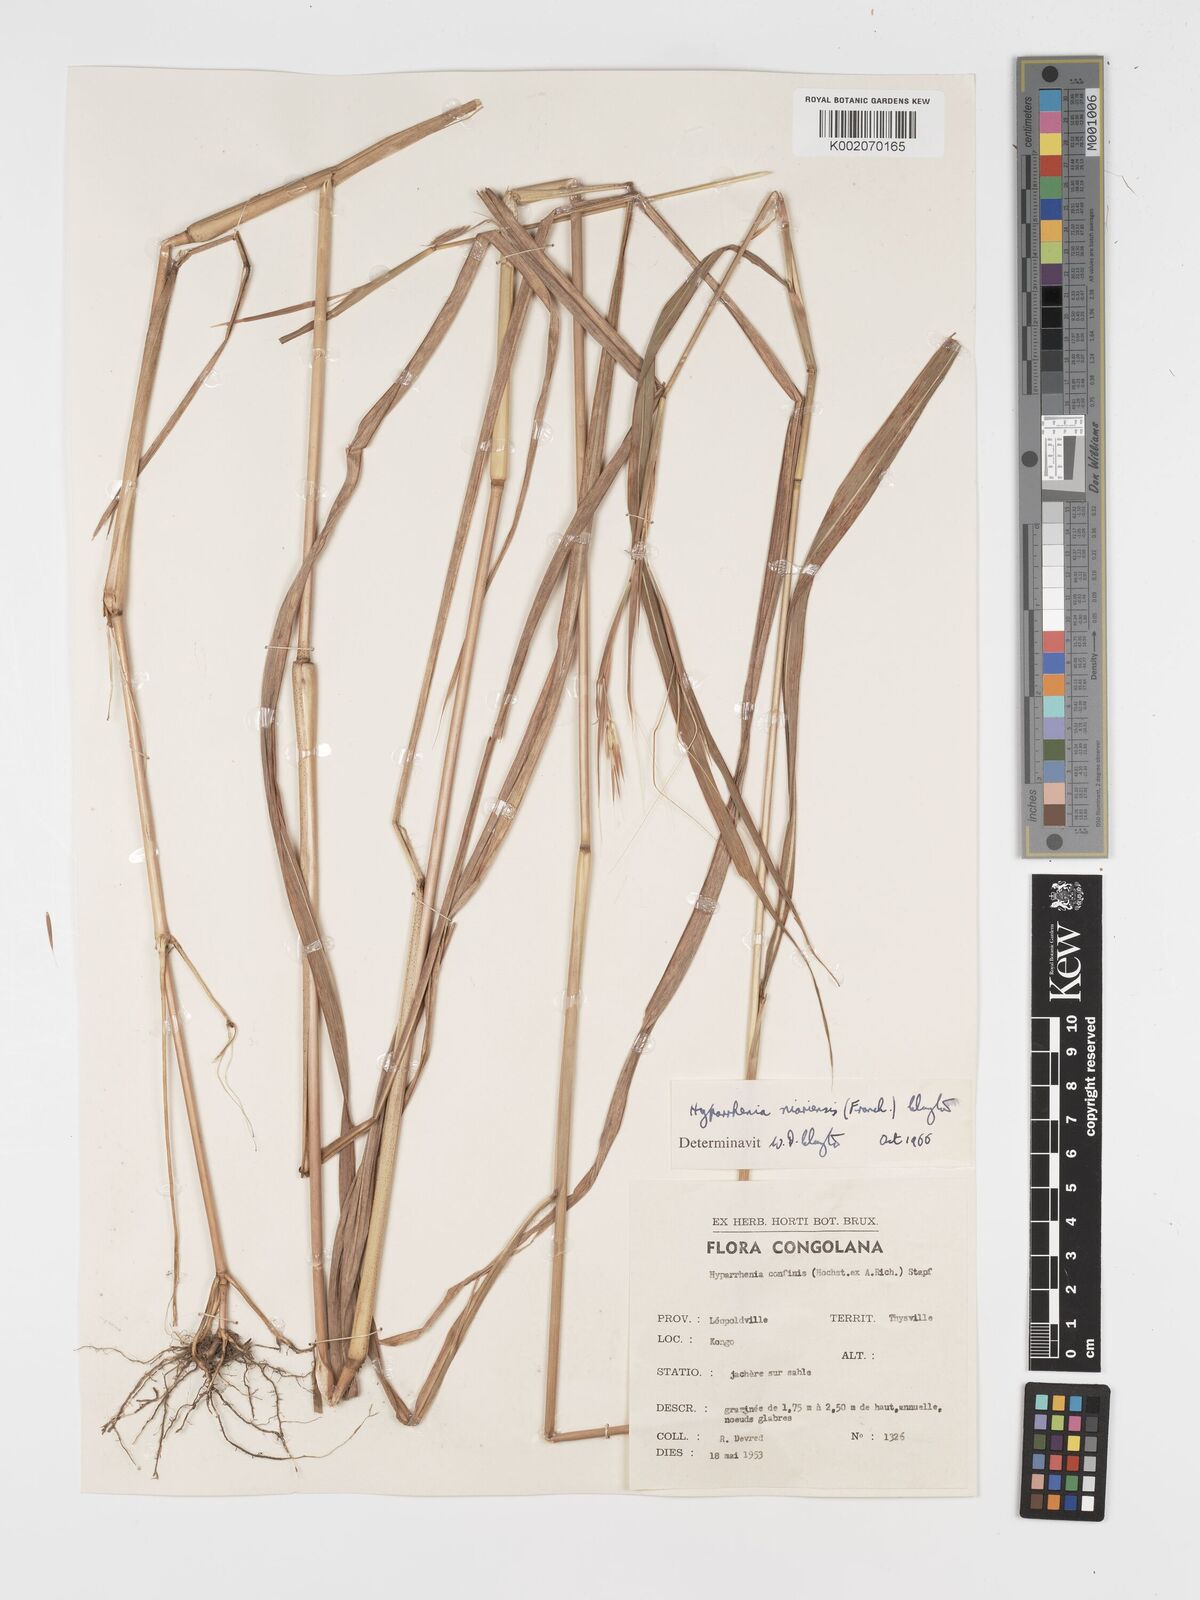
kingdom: Plantae
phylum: Tracheophyta
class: Liliopsida
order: Poales
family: Poaceae
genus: Hyparrhenia
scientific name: Hyparrhenia niariensis
